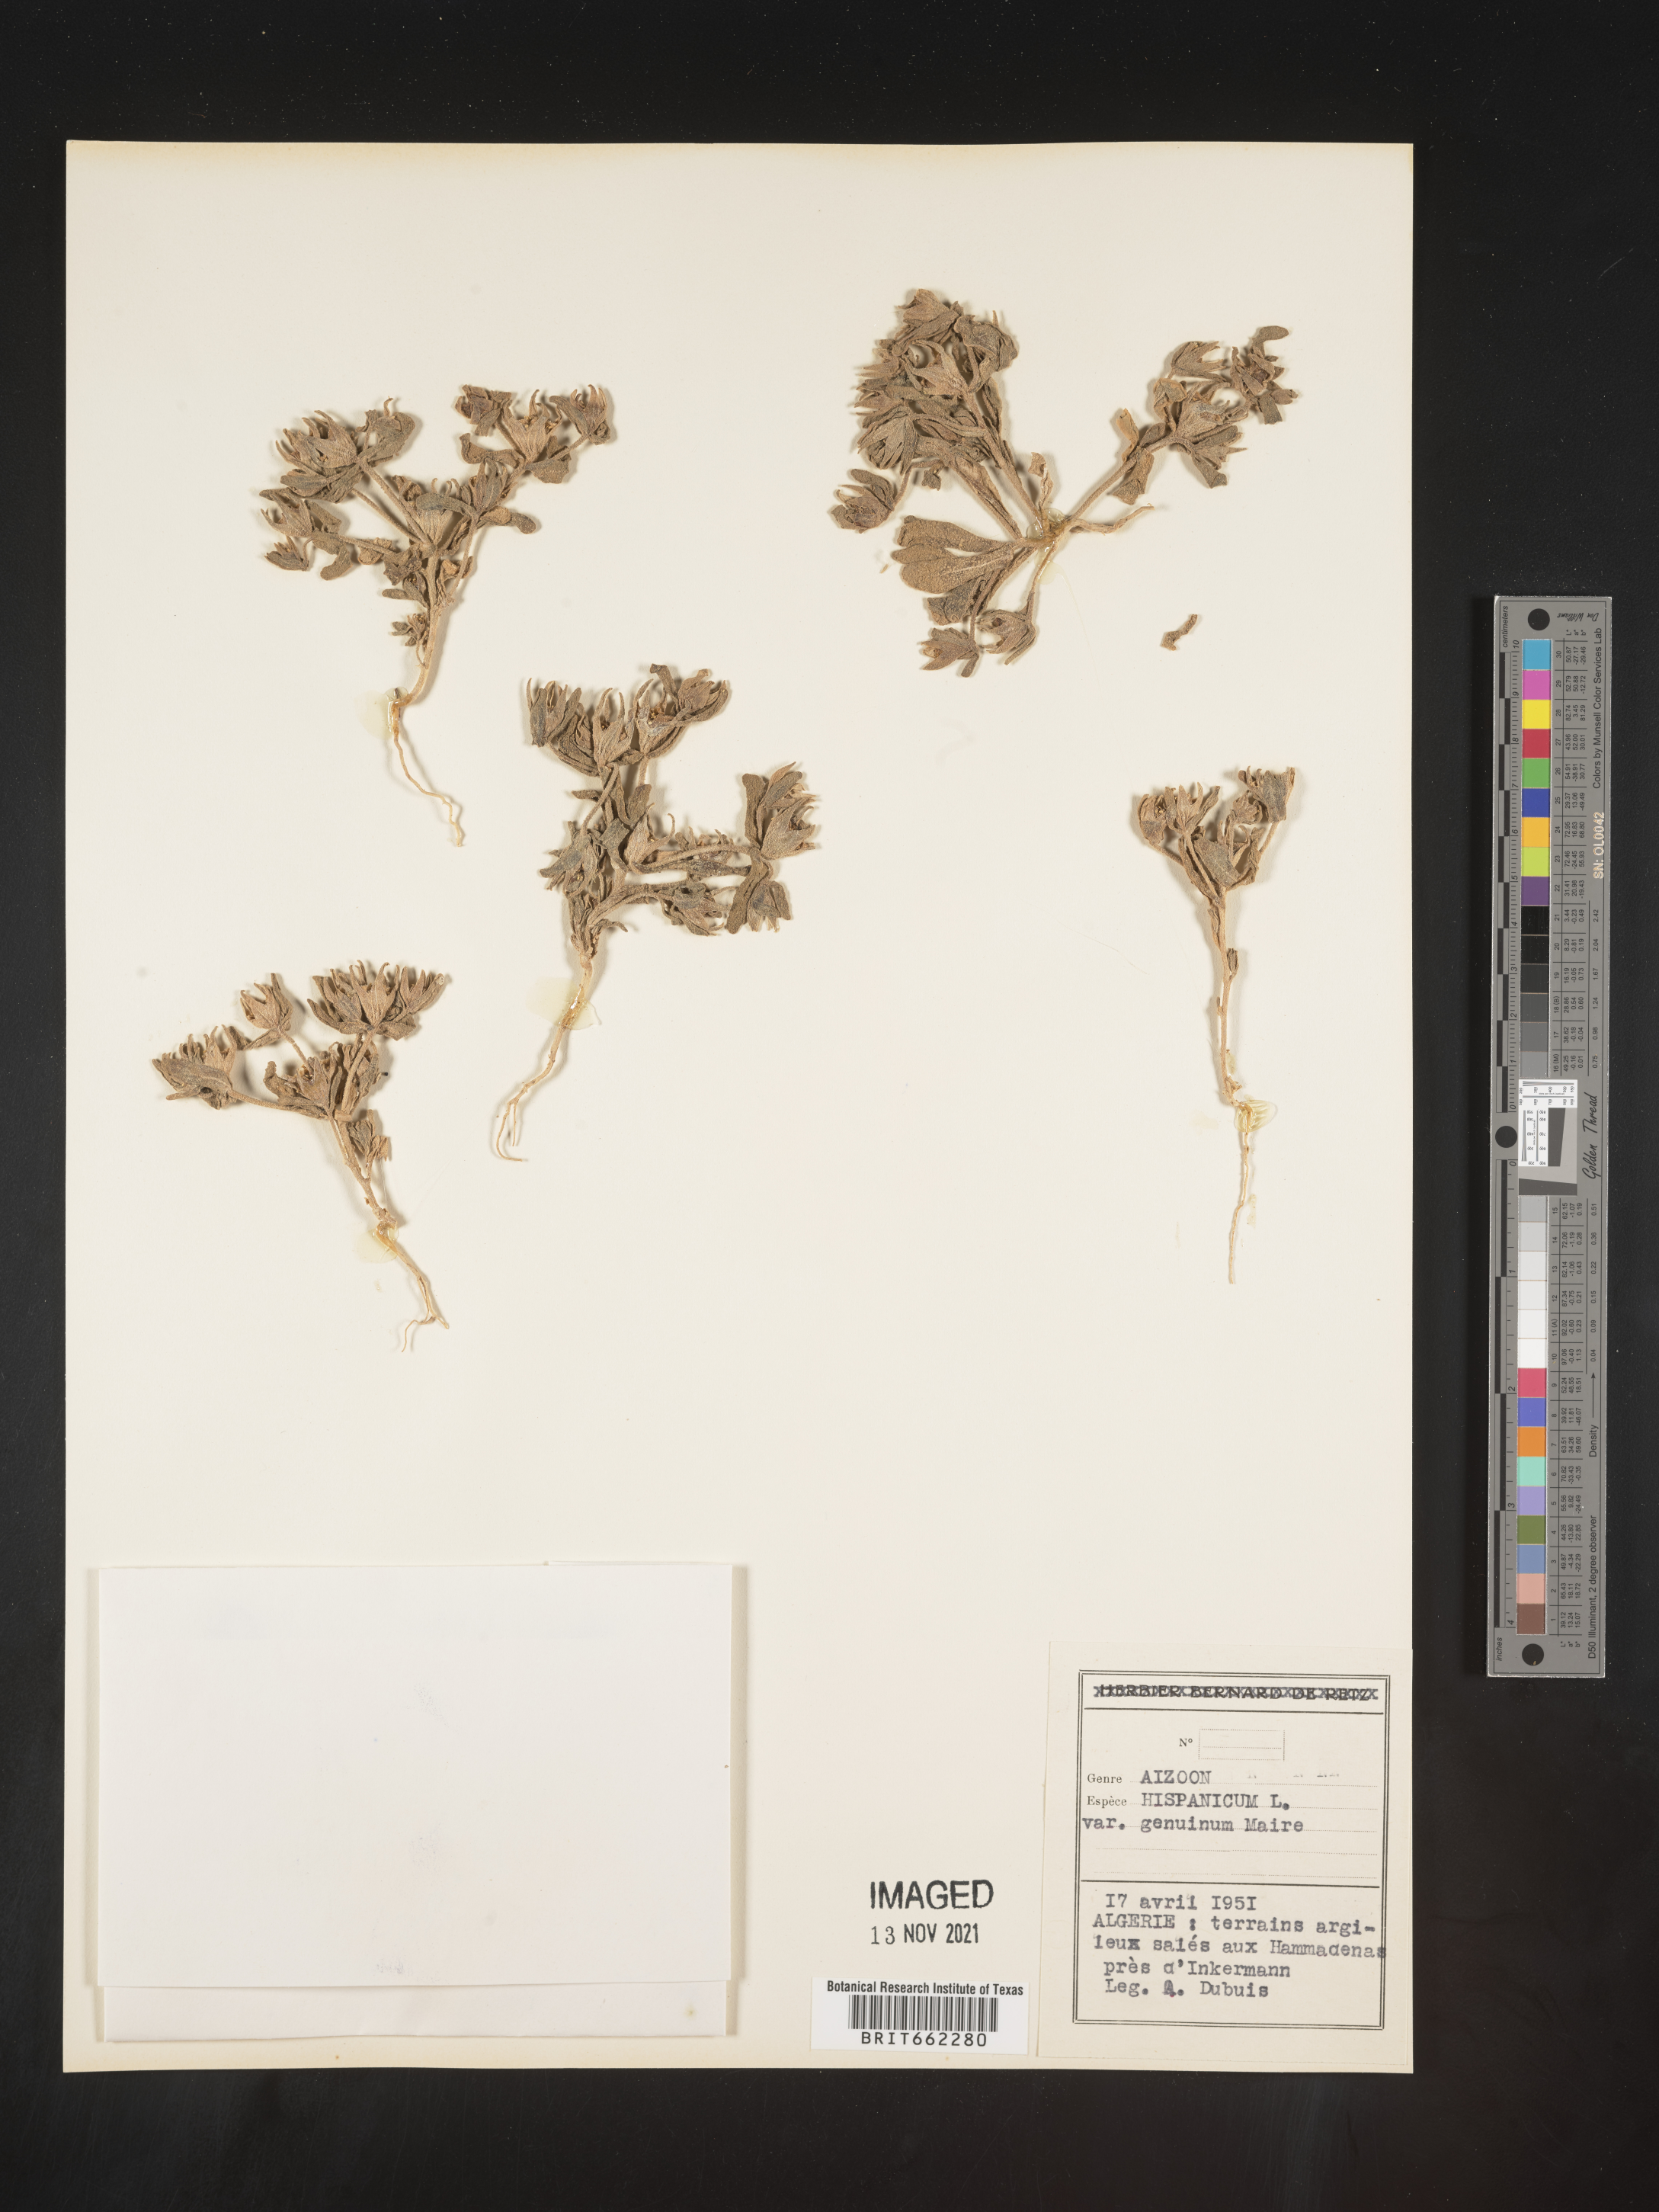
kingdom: Plantae
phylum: Tracheophyta
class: Magnoliopsida
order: Caryophyllales
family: Aizoaceae
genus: Aizoon
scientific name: Aizoon
